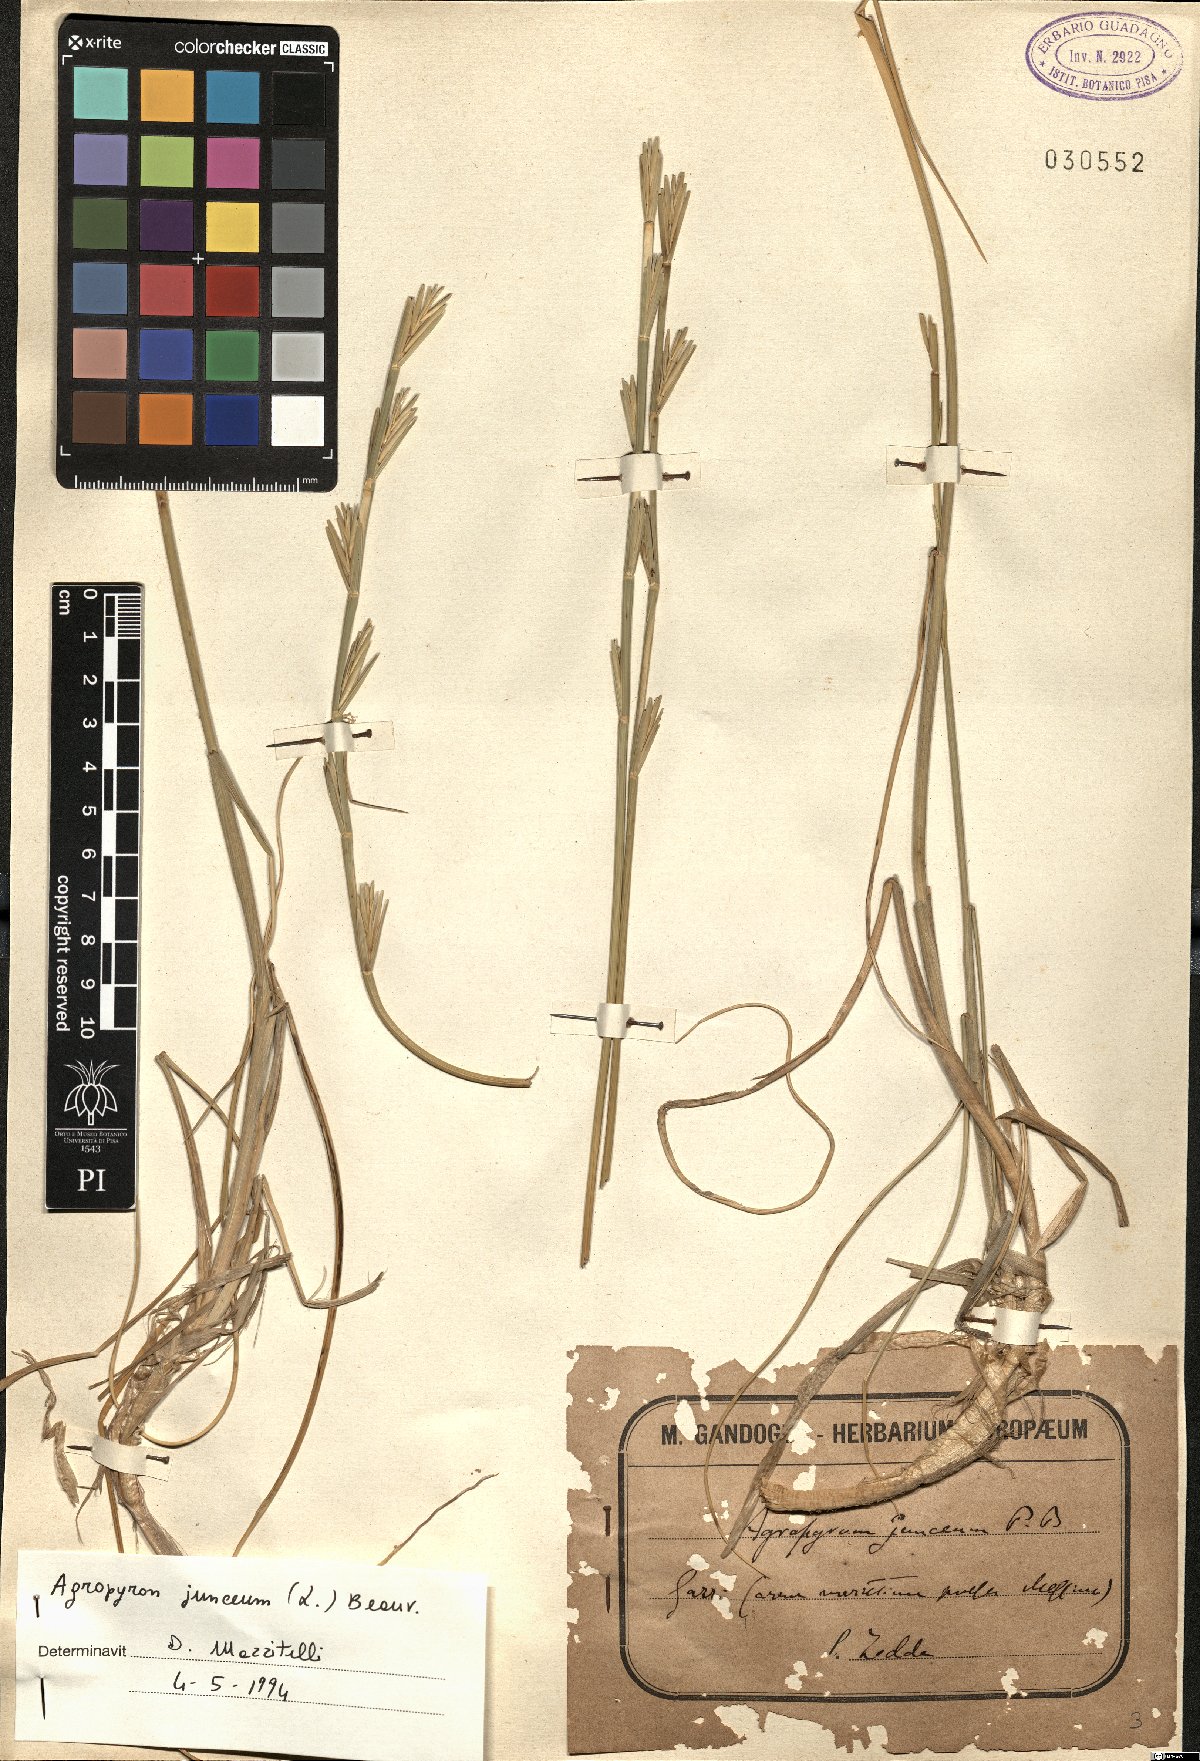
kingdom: Plantae
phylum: Tracheophyta
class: Liliopsida
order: Poales
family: Poaceae
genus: Thinopyrum
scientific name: Thinopyrum junceum
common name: Russian wheatgrass
